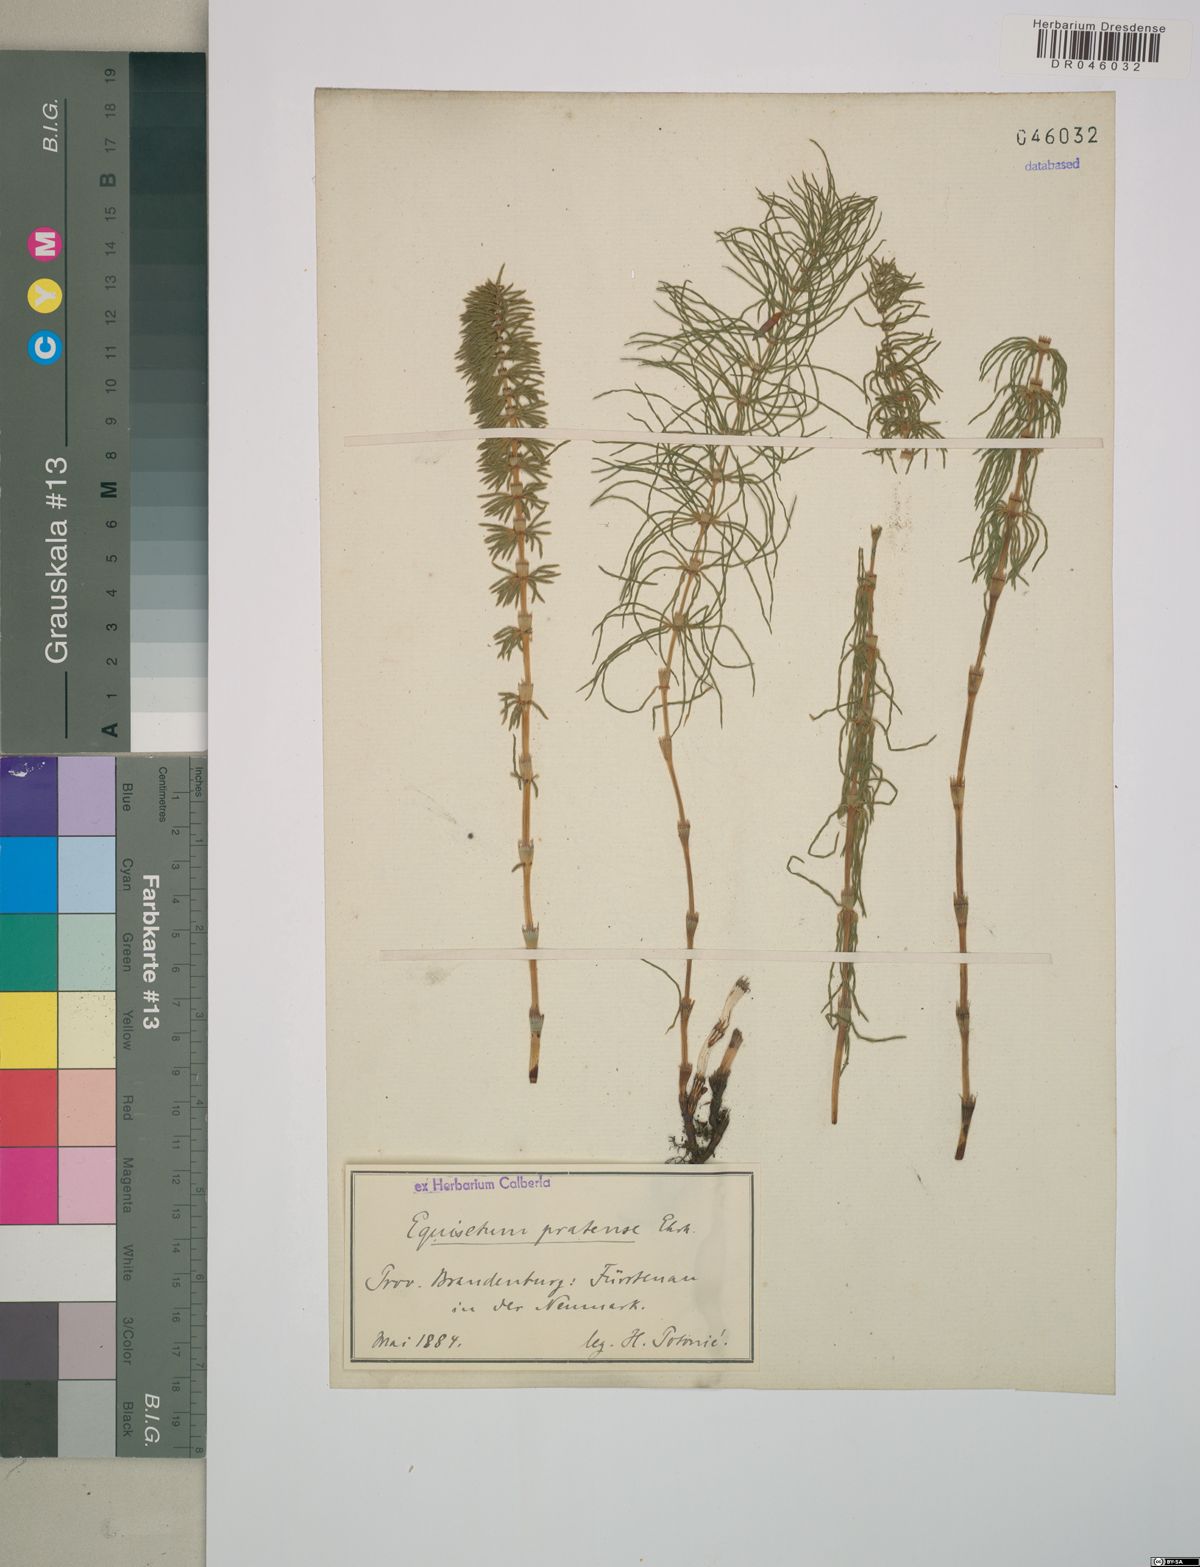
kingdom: Plantae
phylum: Tracheophyta
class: Polypodiopsida
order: Equisetales
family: Equisetaceae
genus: Equisetum
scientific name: Equisetum pratense
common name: Meadow horsetail
